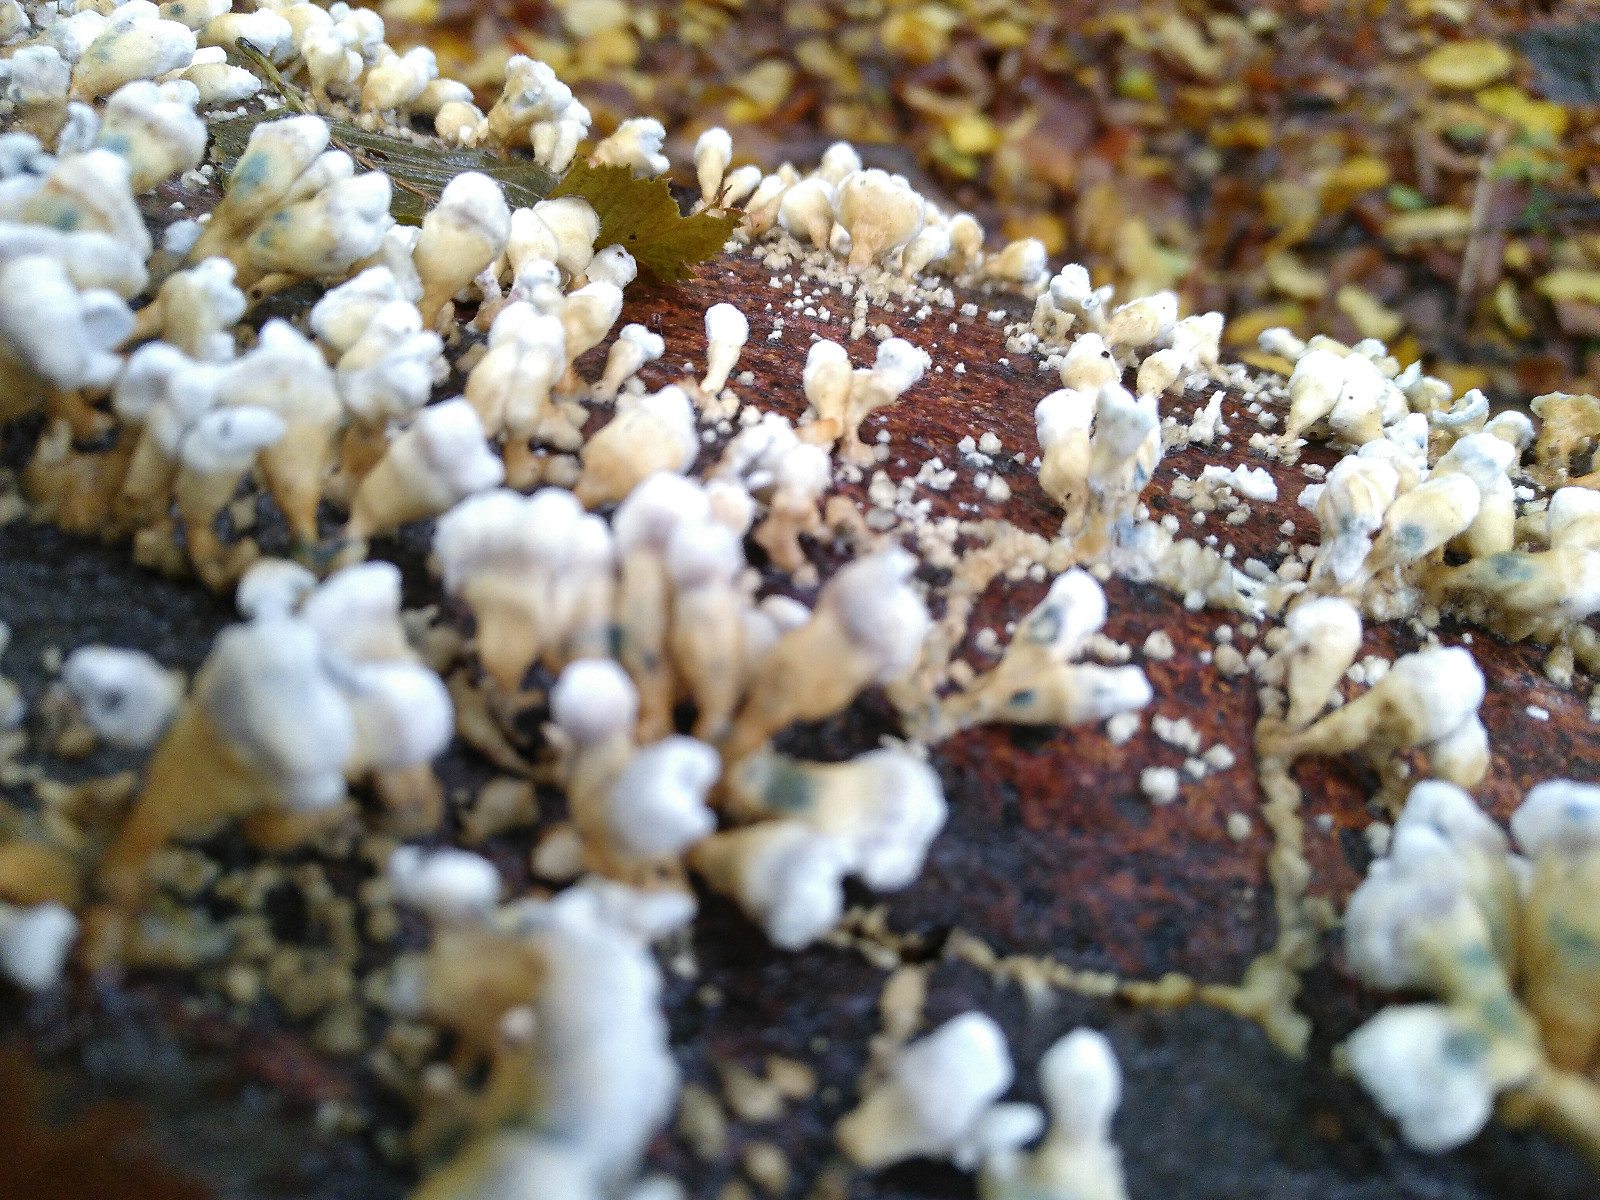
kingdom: Fungi
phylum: Basidiomycota
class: Agaricomycetes
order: Amylocorticiales
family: Amylocorticiaceae
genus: Plicaturopsis
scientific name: Plicaturopsis crispa
